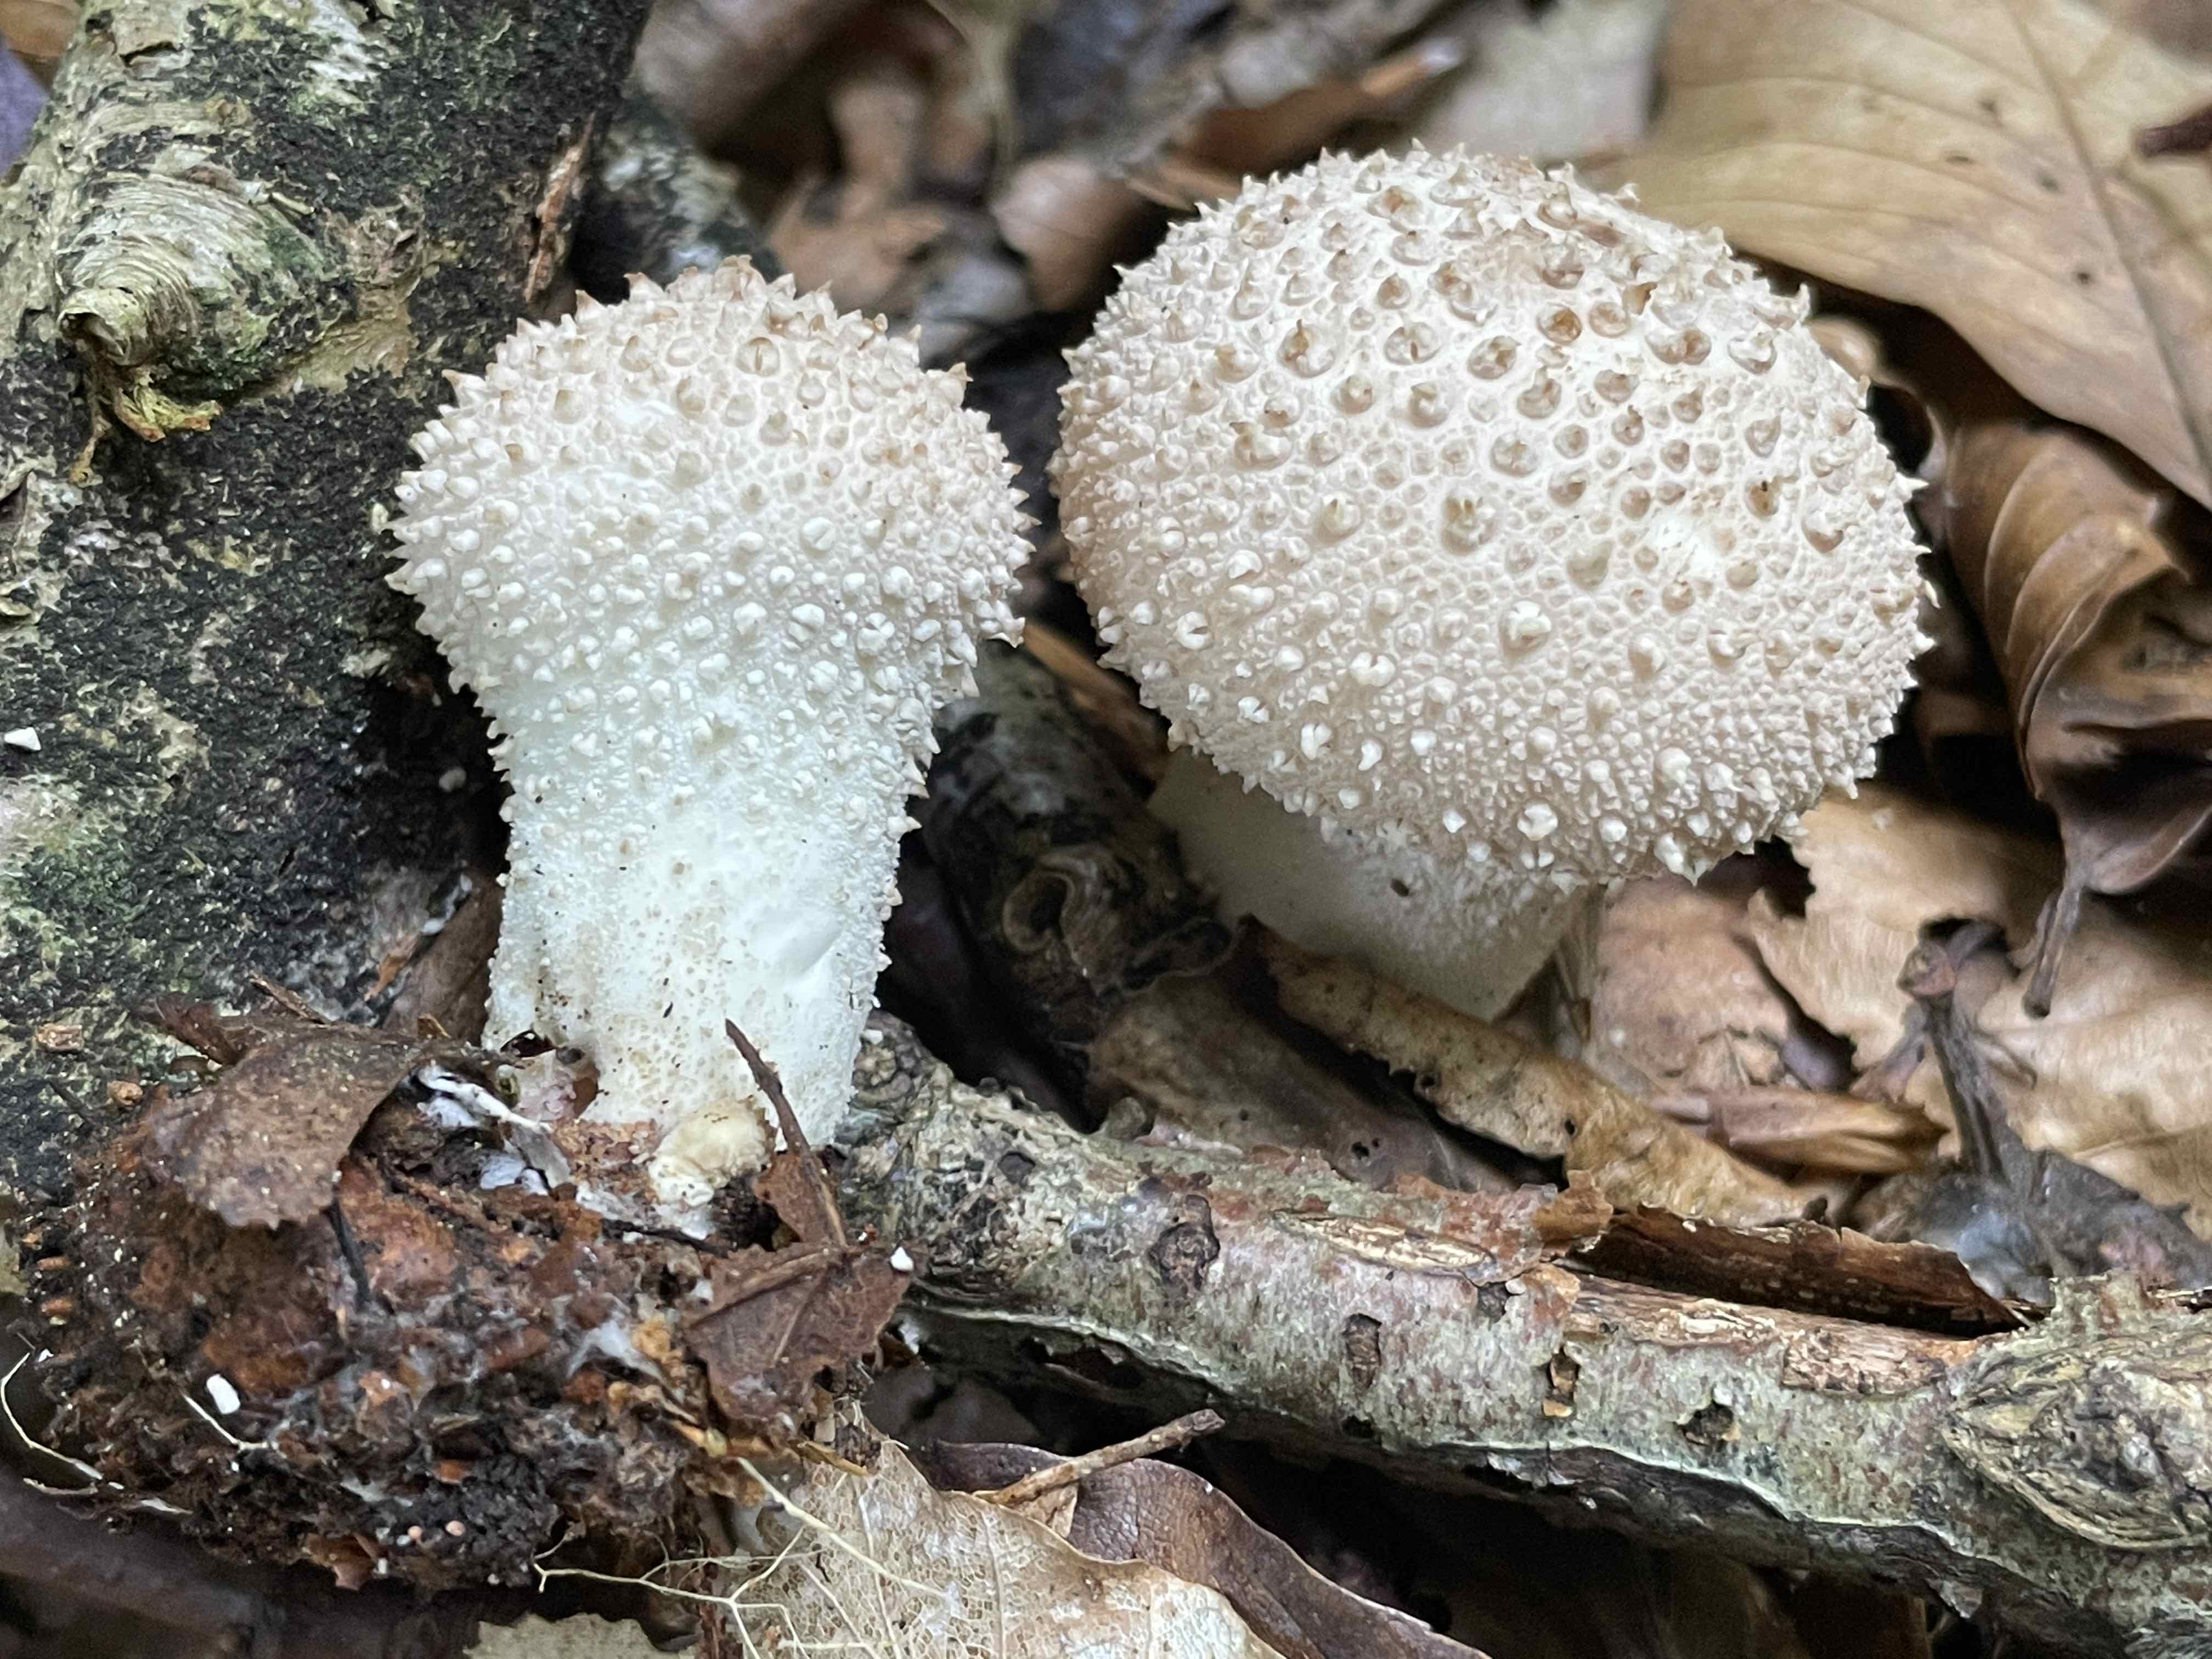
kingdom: Fungi
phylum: Basidiomycota
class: Agaricomycetes
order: Agaricales
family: Lycoperdaceae
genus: Lycoperdon
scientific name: Lycoperdon perlatum
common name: krystal-støvbold
